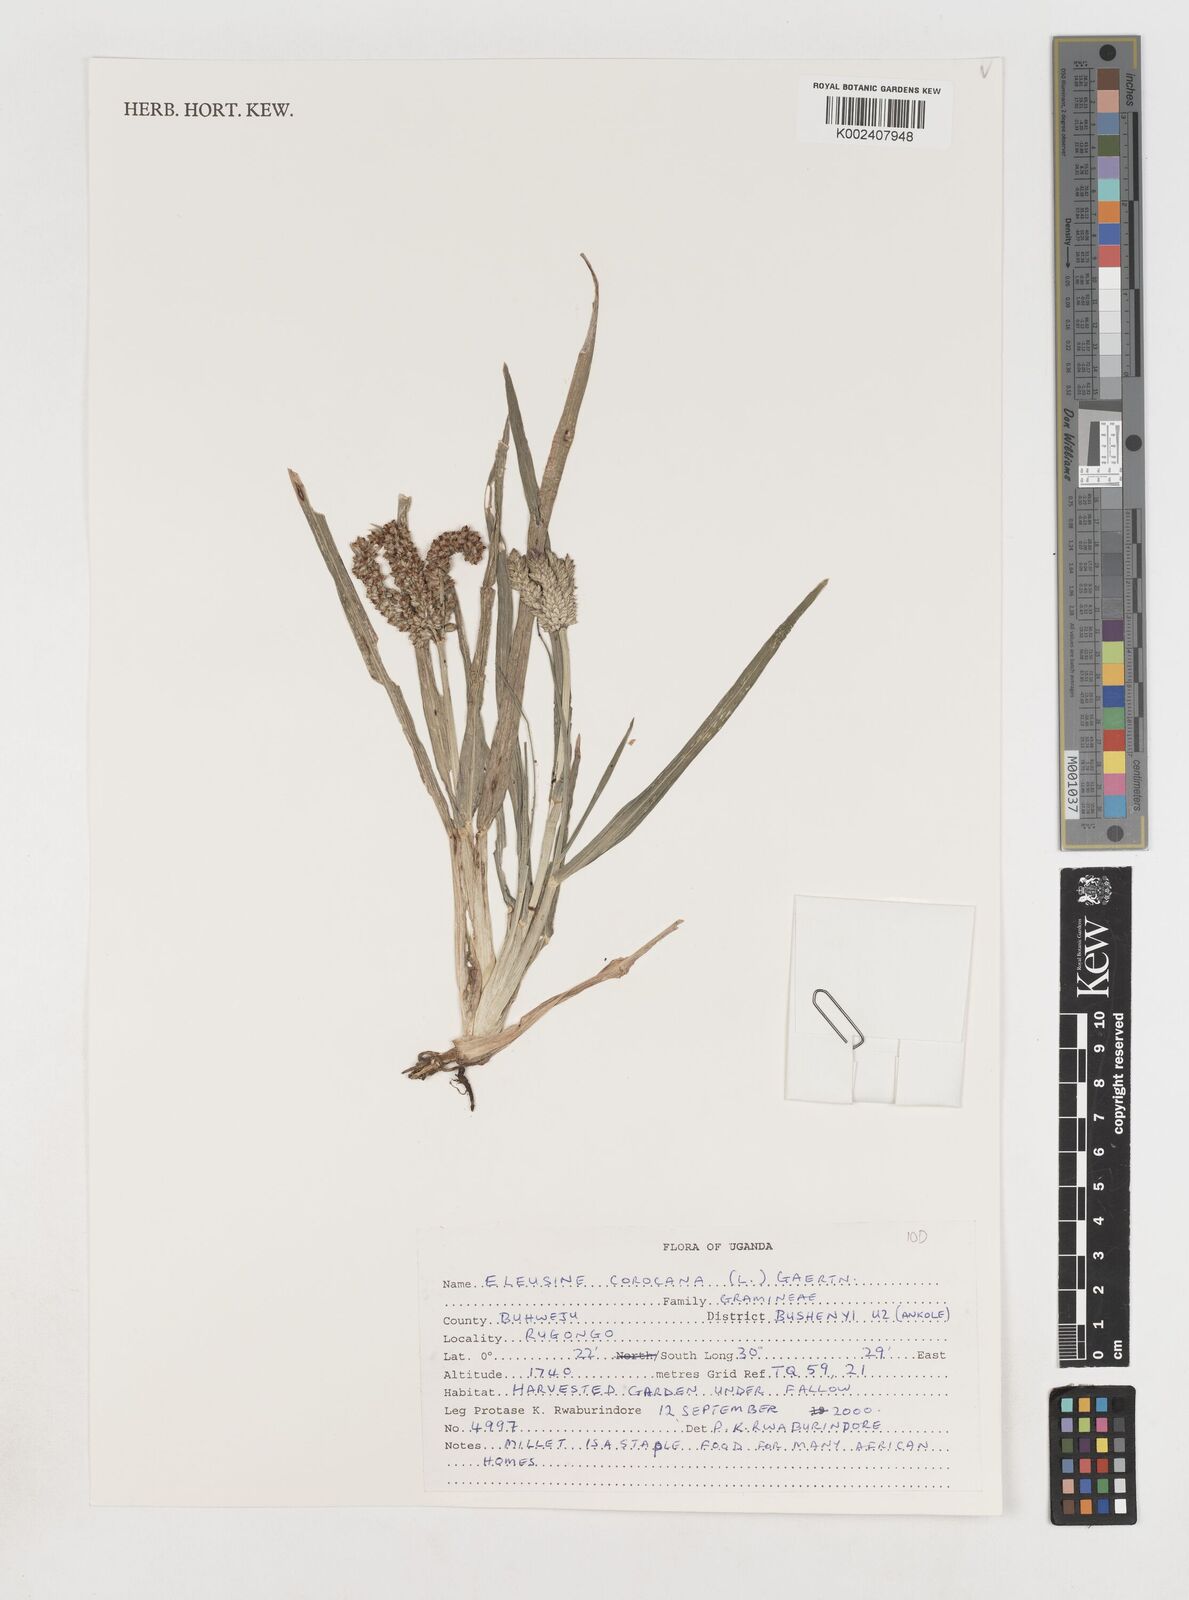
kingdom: Plantae
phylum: Tracheophyta
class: Liliopsida
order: Poales
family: Poaceae
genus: Eleusine
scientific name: Eleusine coracana
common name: Finger millet
